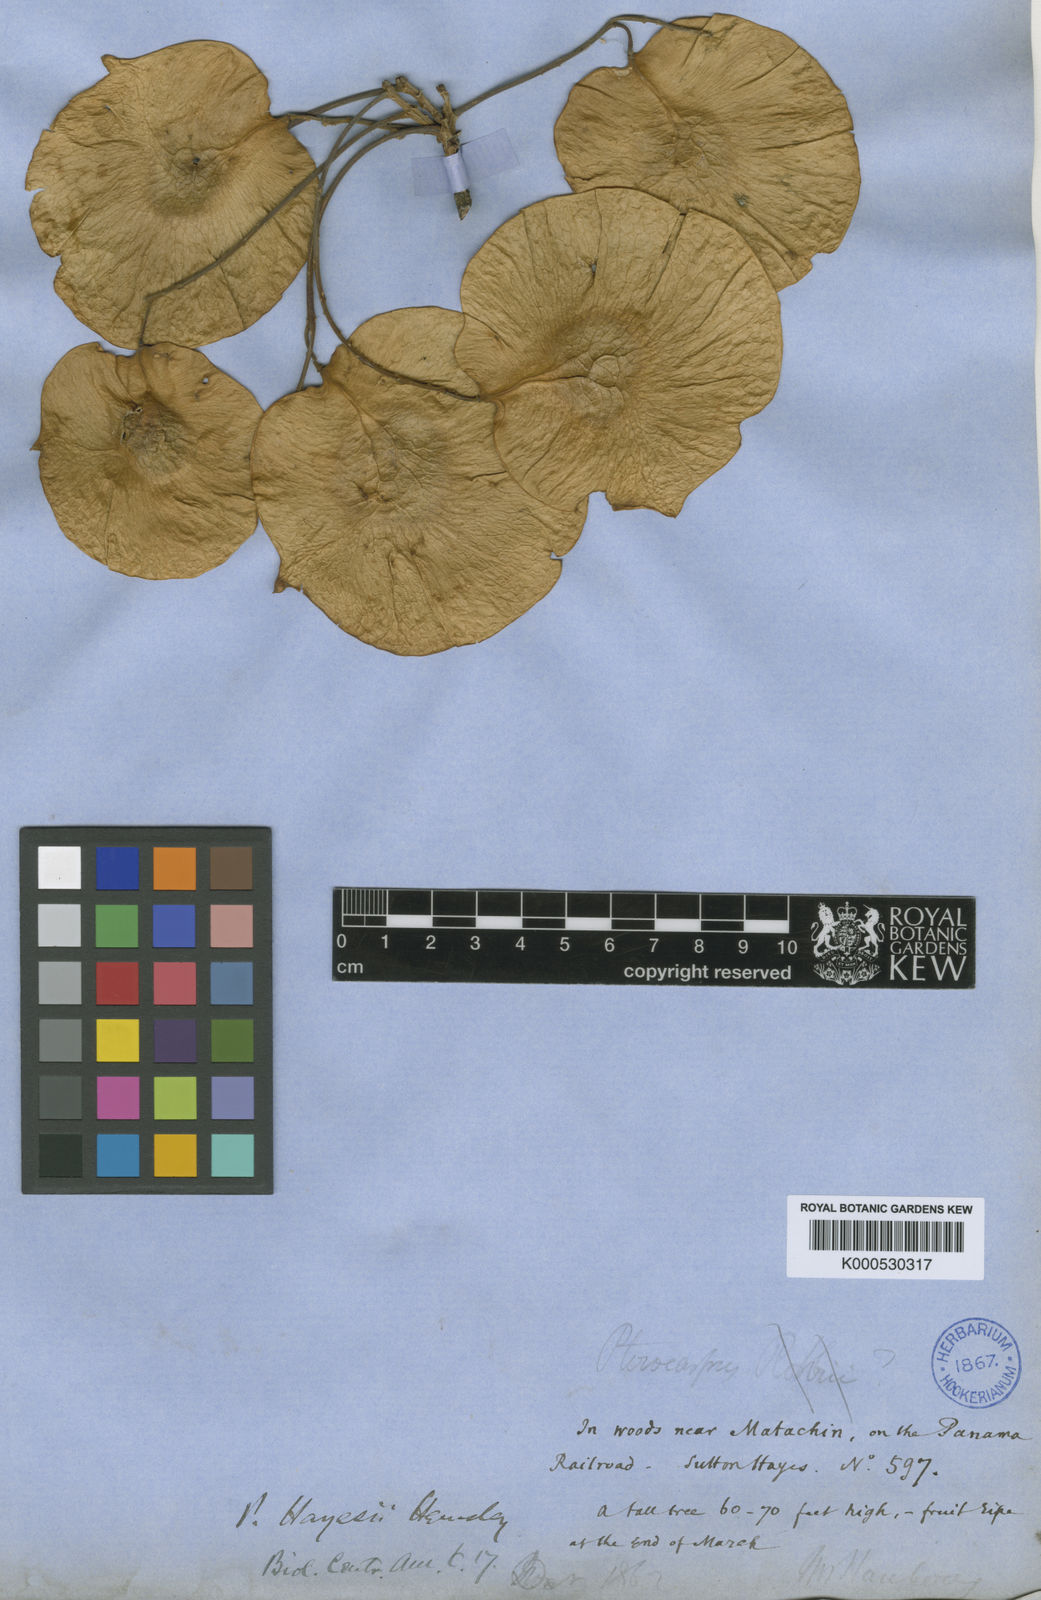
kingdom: Plantae
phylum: Tracheophyta
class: Magnoliopsida
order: Fabales
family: Fabaceae
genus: Pterocarpus
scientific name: Pterocarpus rohrii
